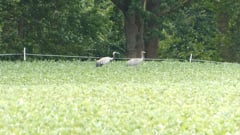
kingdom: Animalia
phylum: Chordata
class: Aves
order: Gruiformes
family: Gruidae
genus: Grus
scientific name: Grus grus
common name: Common crane
